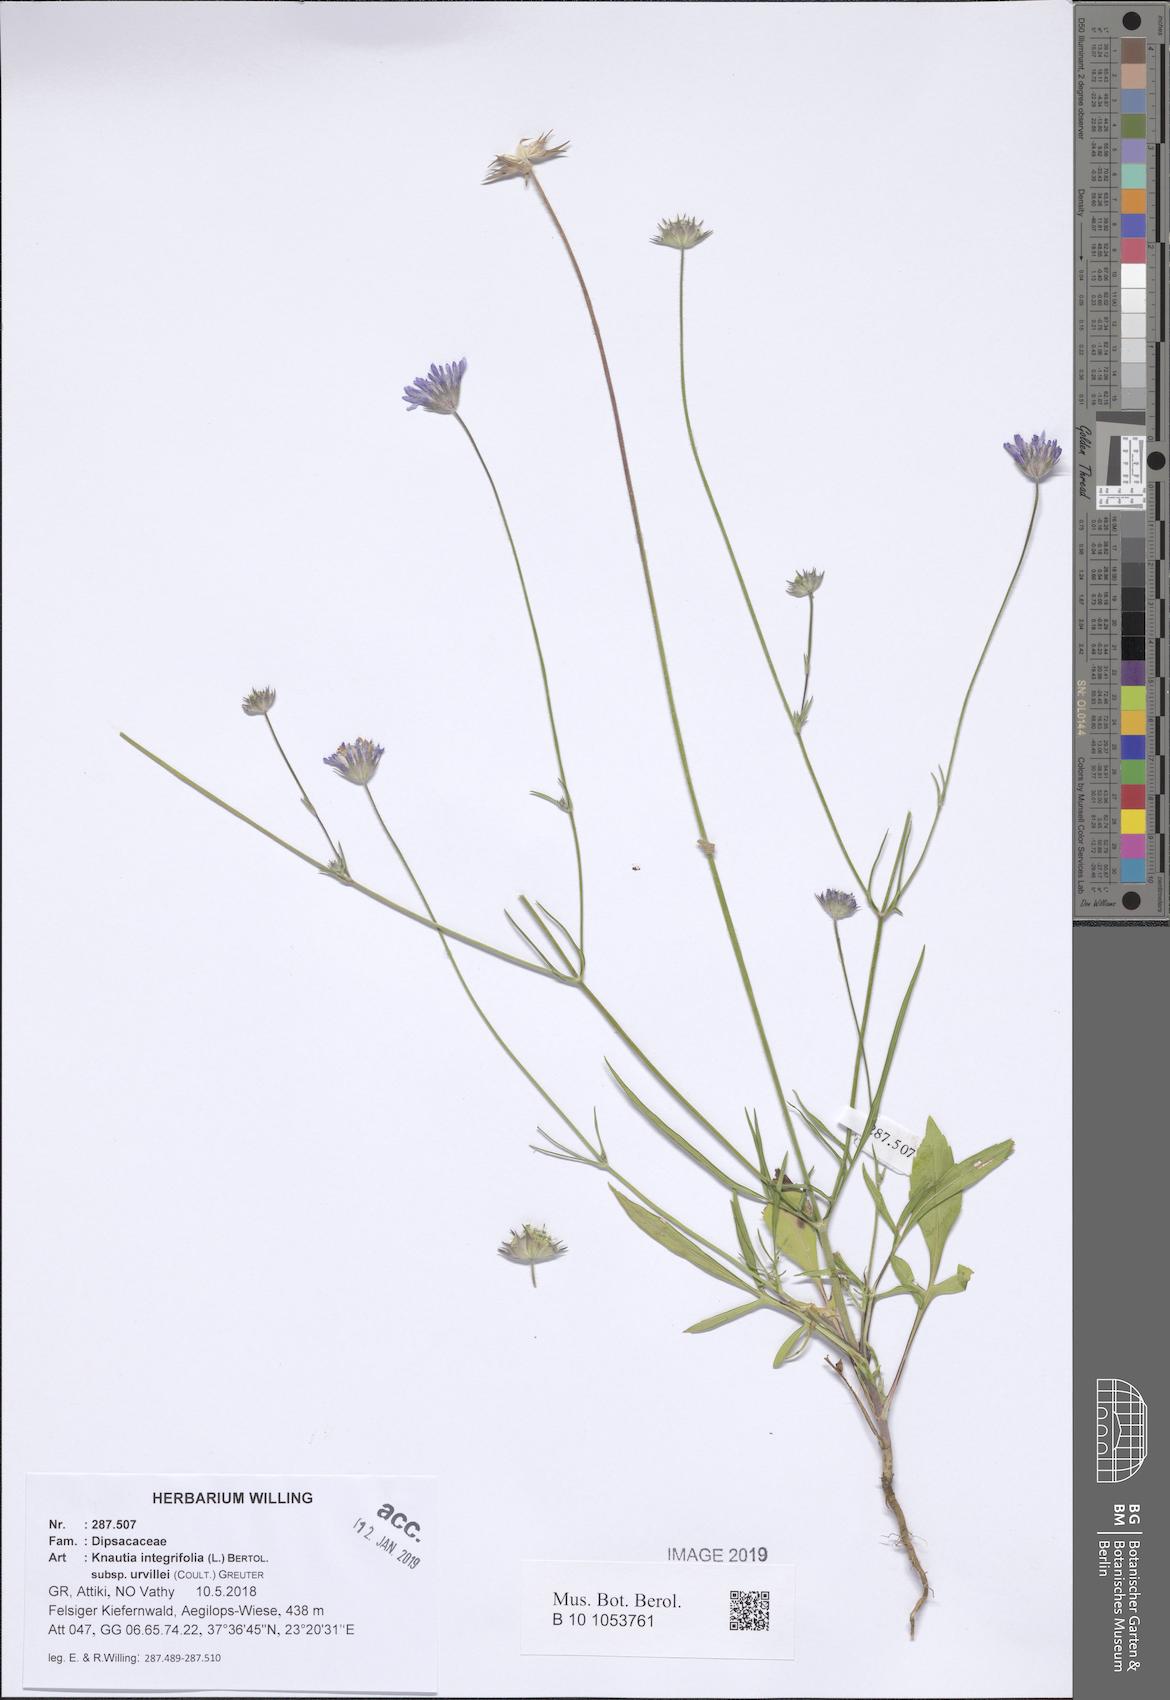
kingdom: Plantae
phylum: Tracheophyta
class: Magnoliopsida
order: Dipsacales
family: Caprifoliaceae
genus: Knautia
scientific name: Knautia integrifolia
